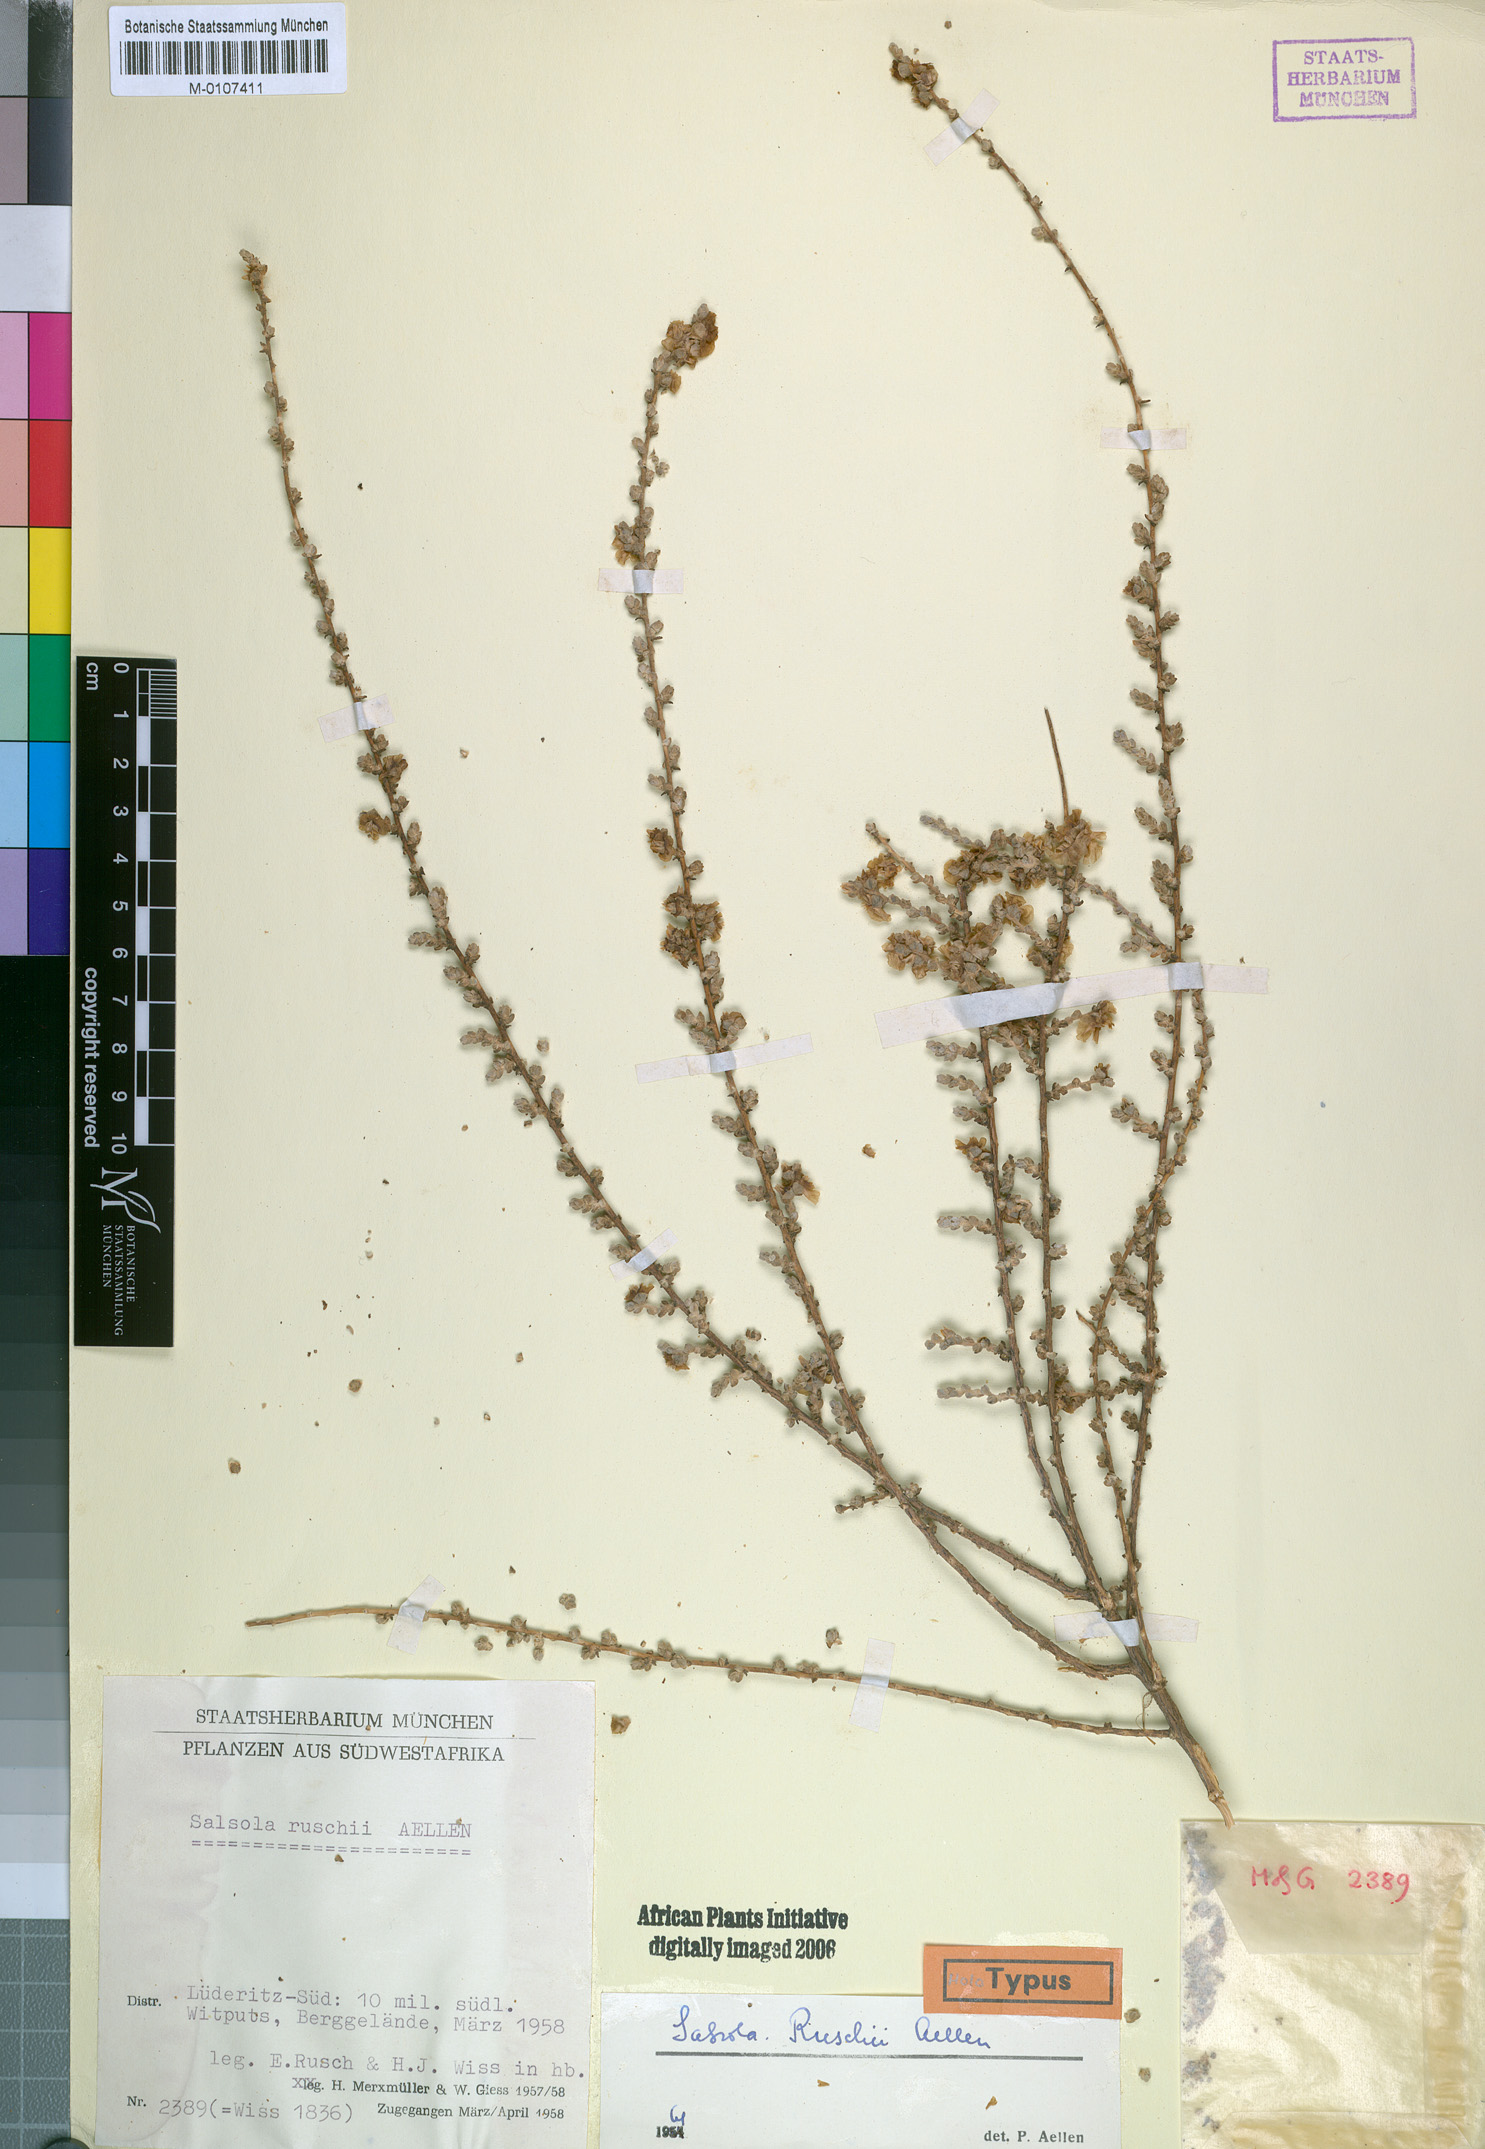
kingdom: Plantae
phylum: Tracheophyta
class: Magnoliopsida
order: Caryophyllales
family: Amaranthaceae
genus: Caroxylon
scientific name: Caroxylon ruschii
